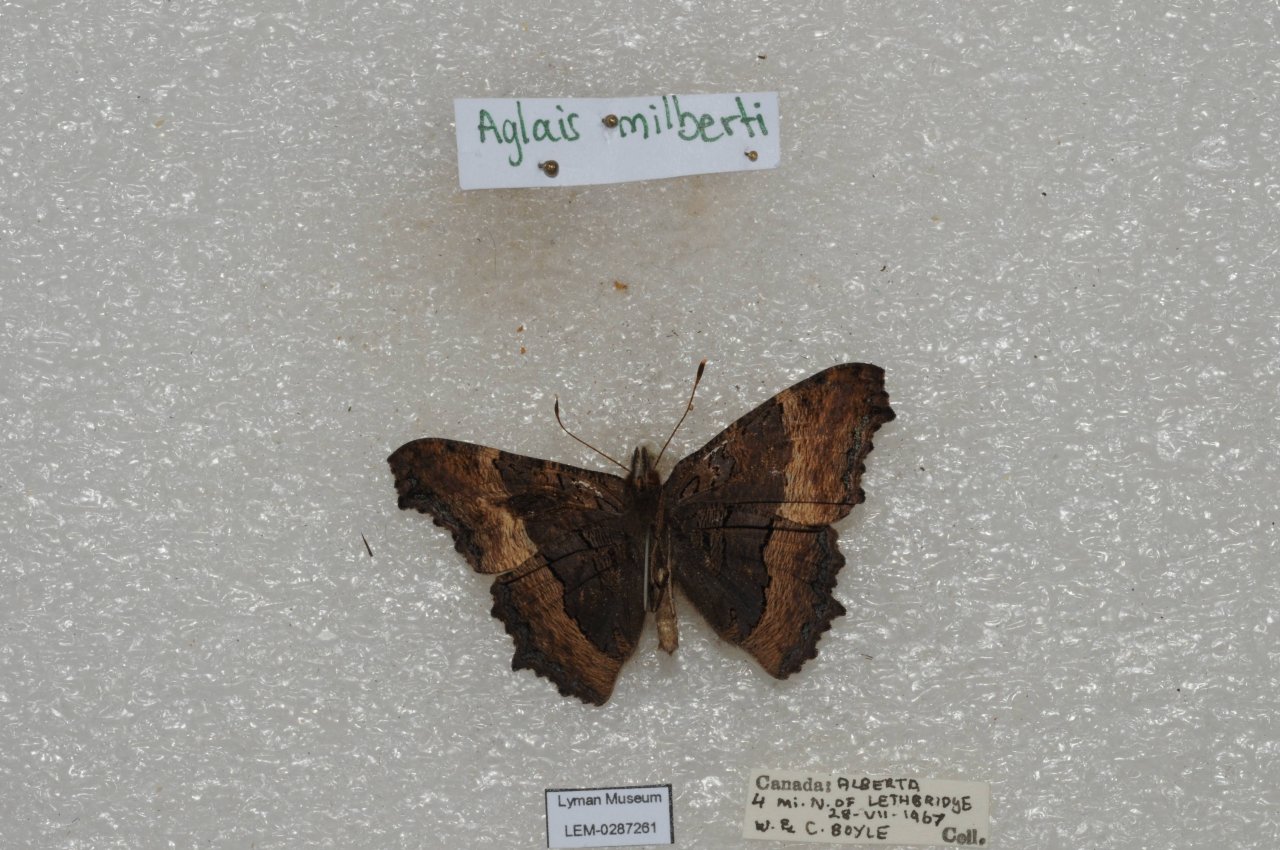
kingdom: Animalia
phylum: Arthropoda
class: Insecta
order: Lepidoptera
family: Nymphalidae
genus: Aglais
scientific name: Aglais milberti
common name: Milbert's Tortoiseshell
